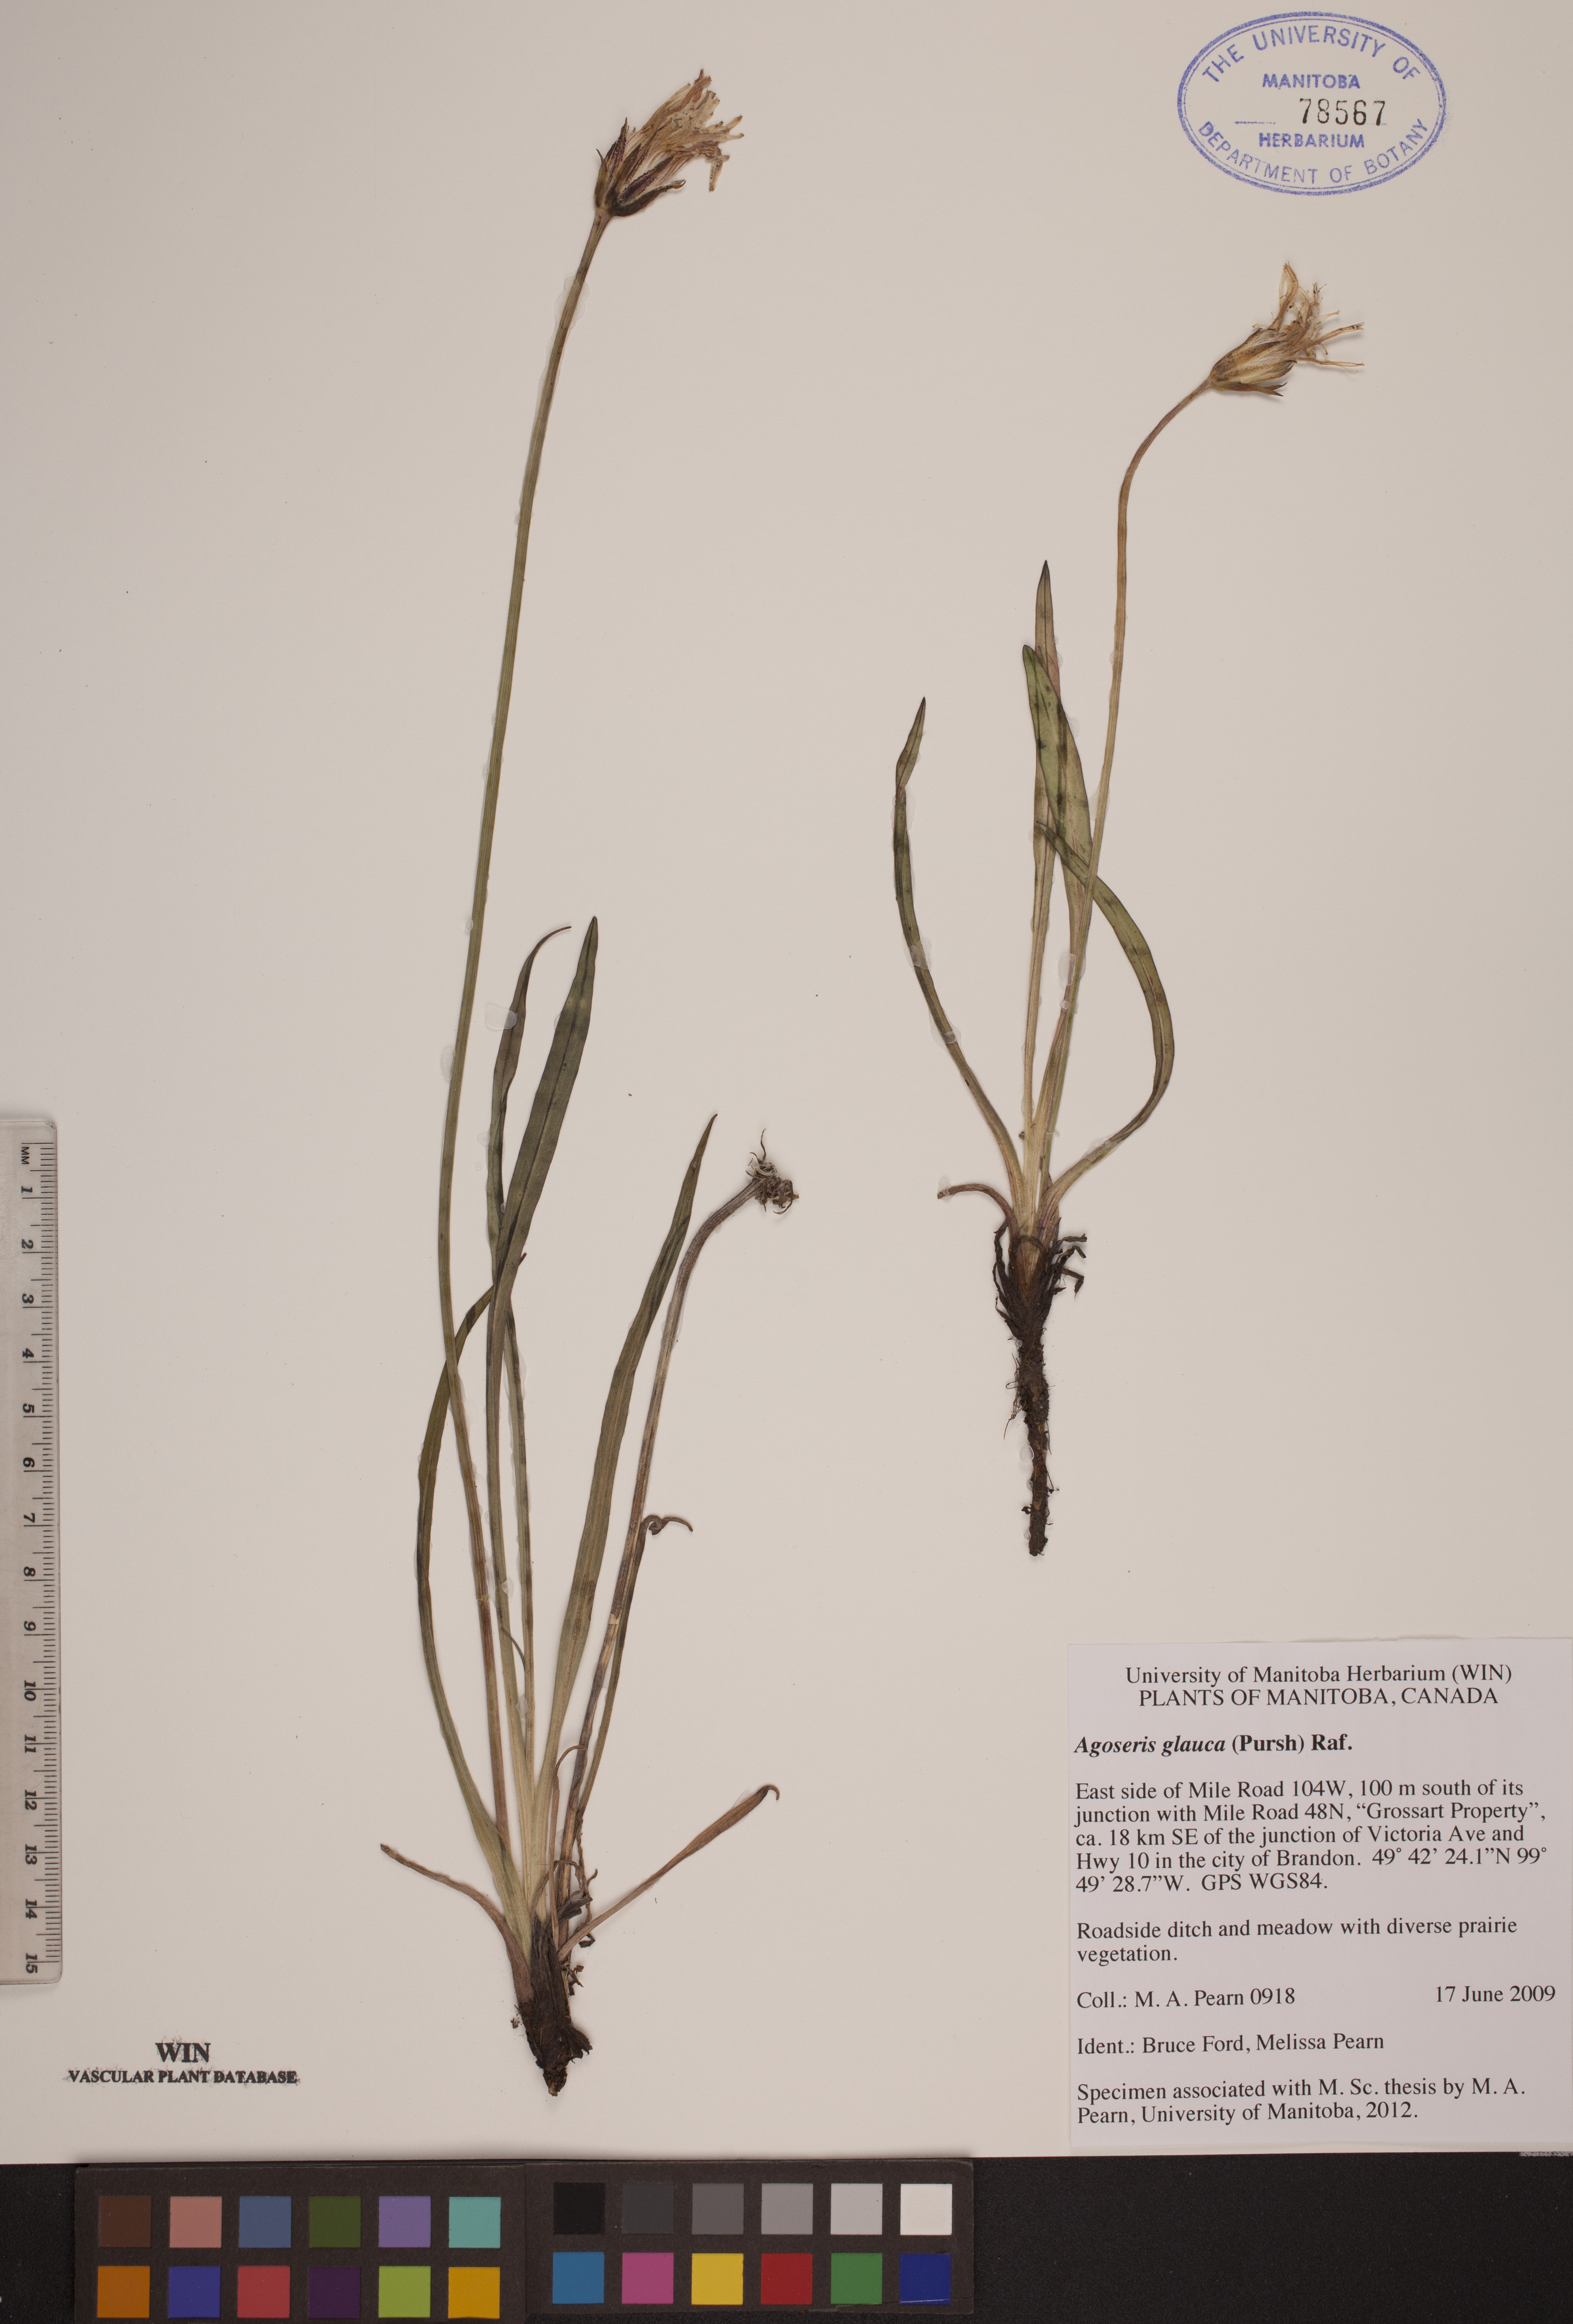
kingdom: Plantae
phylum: Tracheophyta
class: Magnoliopsida
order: Asterales
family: Asteraceae
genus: Agoseris
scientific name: Agoseris glauca
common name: Prairie agoseris
